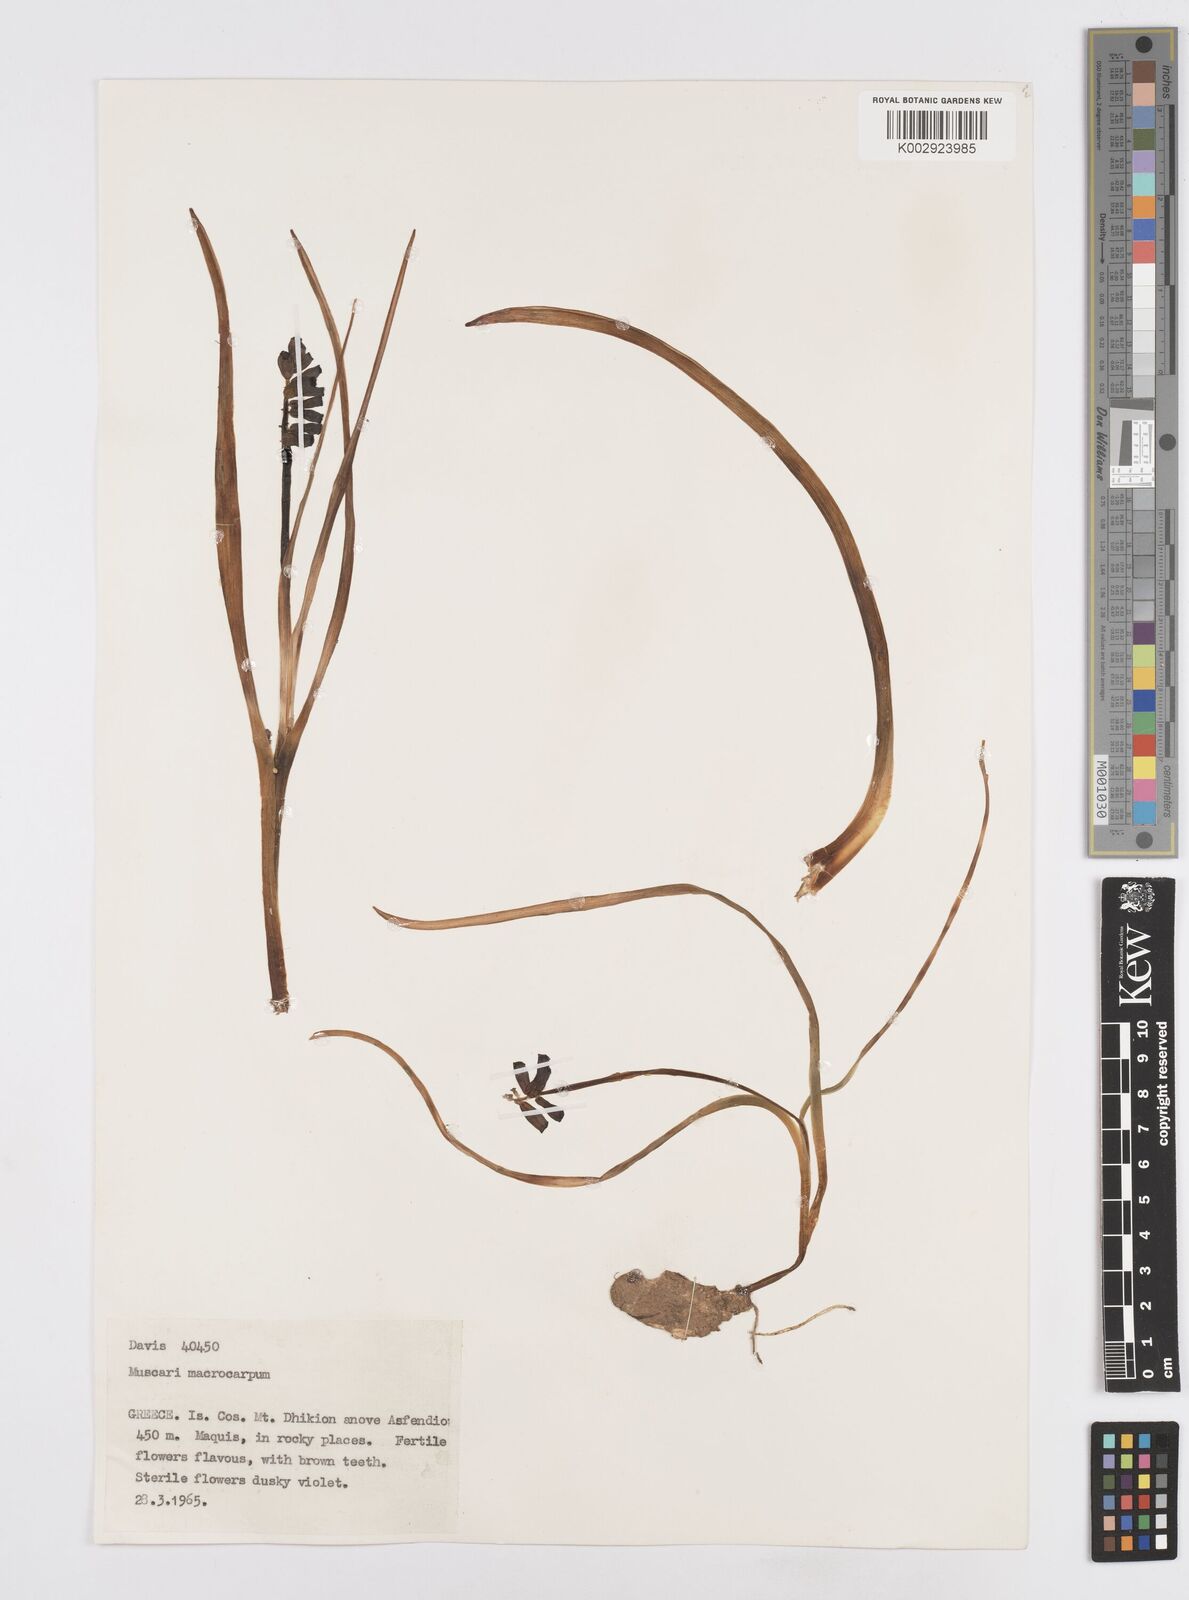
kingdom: Plantae
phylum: Tracheophyta
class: Liliopsida
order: Asparagales
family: Asparagaceae
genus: Muscarimia
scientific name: Muscarimia macrocarpa
